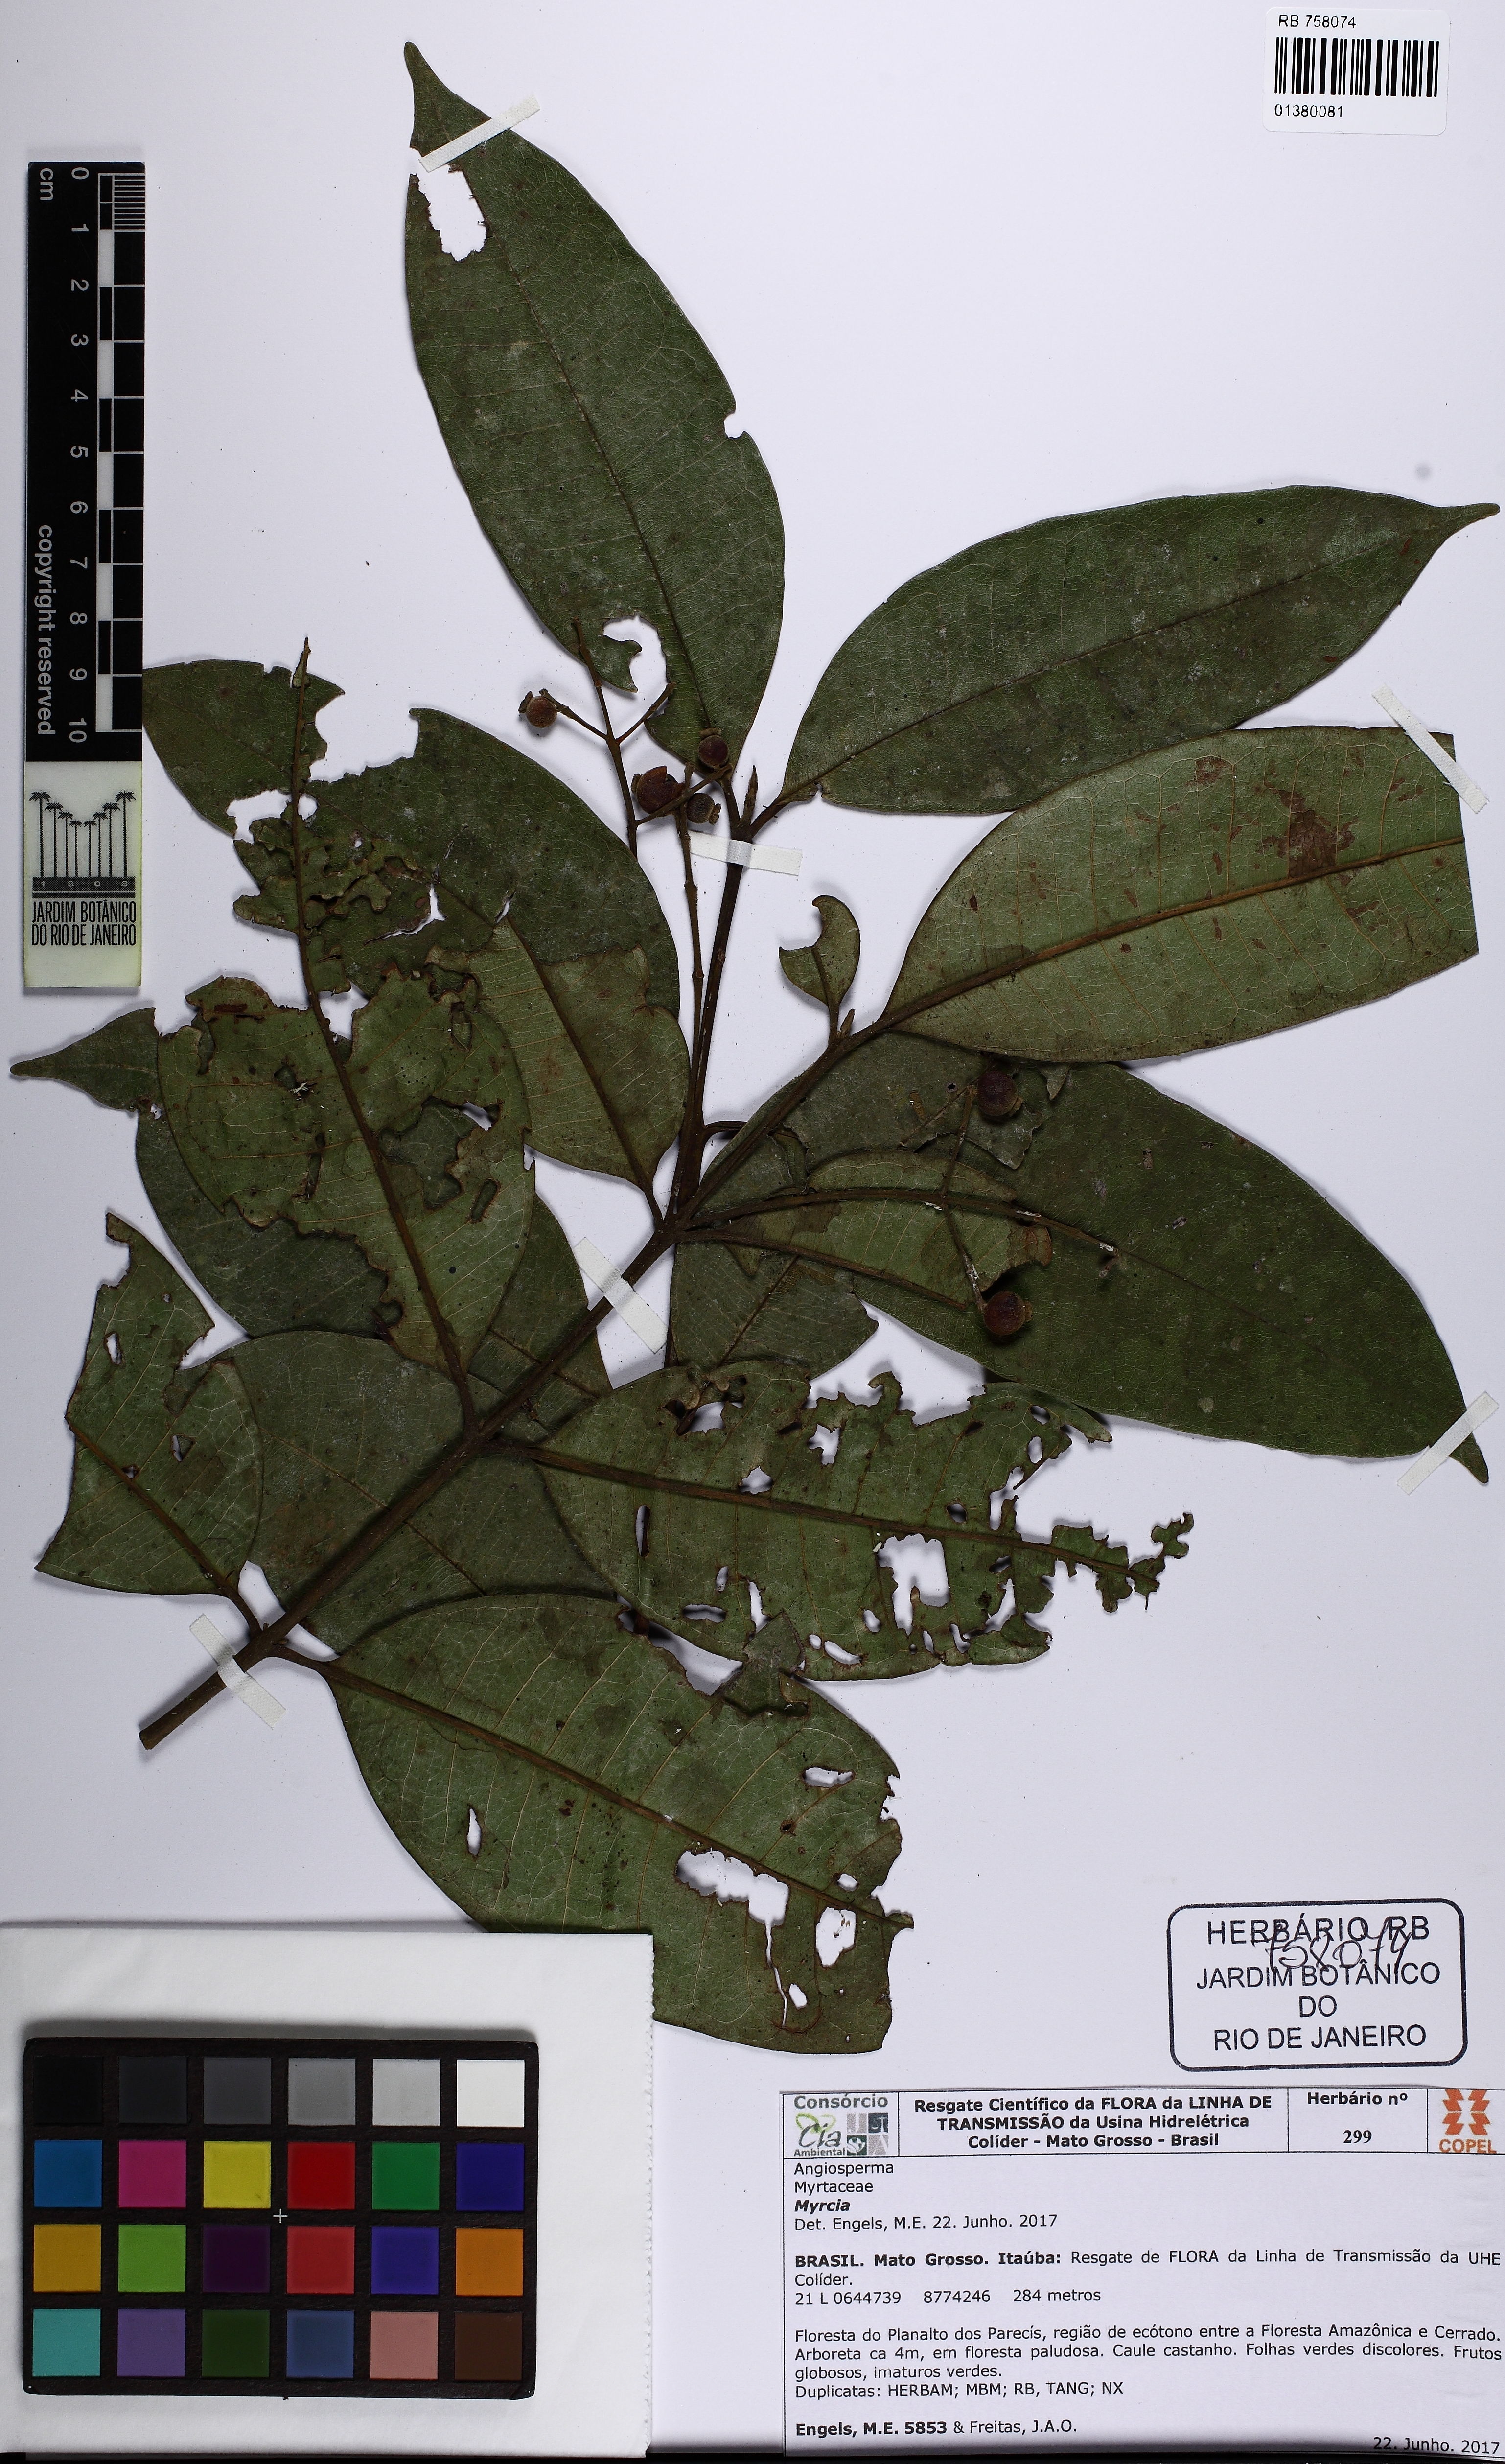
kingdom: Plantae
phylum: Tracheophyta
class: Magnoliopsida
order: Myrtales
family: Myrtaceae
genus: Myrcia
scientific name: Myrcia
